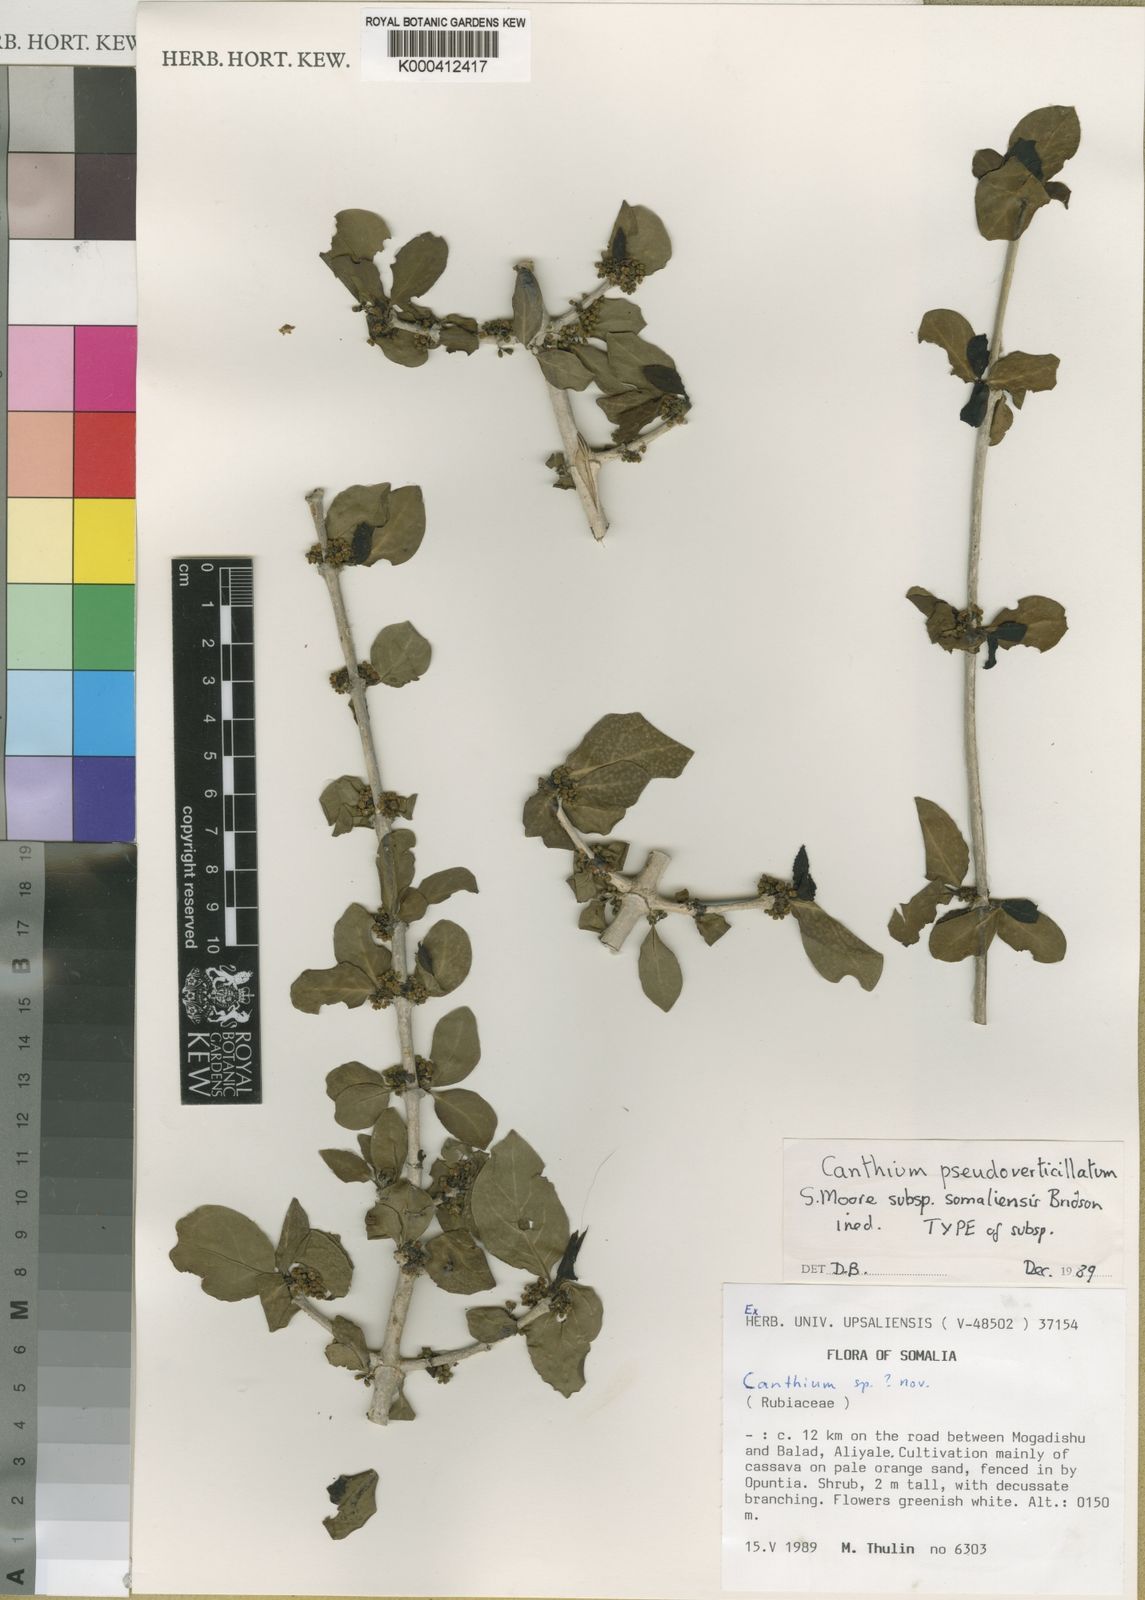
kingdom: Plantae
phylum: Tracheophyta
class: Magnoliopsida
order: Gentianales
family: Rubiaceae
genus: Afrocanthium
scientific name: Afrocanthium pseudoverticillatum
